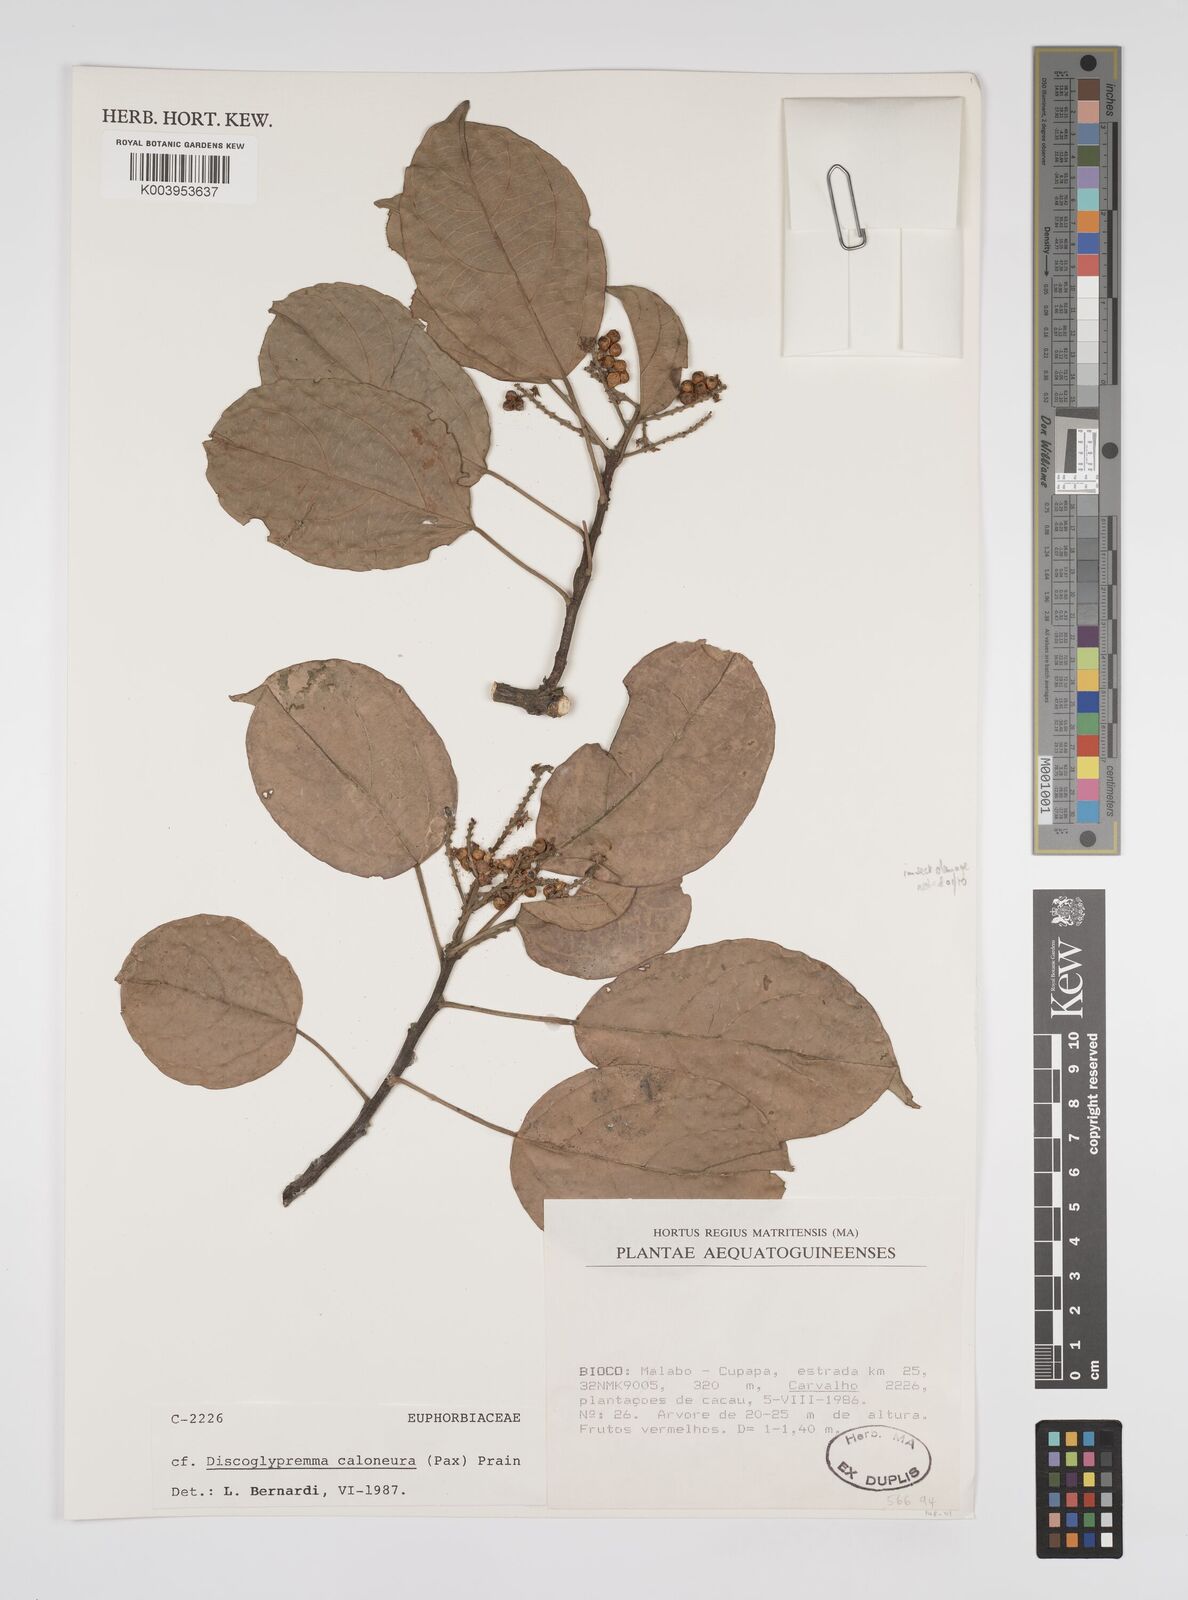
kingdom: Plantae
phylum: Tracheophyta
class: Magnoliopsida
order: Malpighiales
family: Euphorbiaceae
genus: Discoglypremna
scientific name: Discoglypremna caloneura
